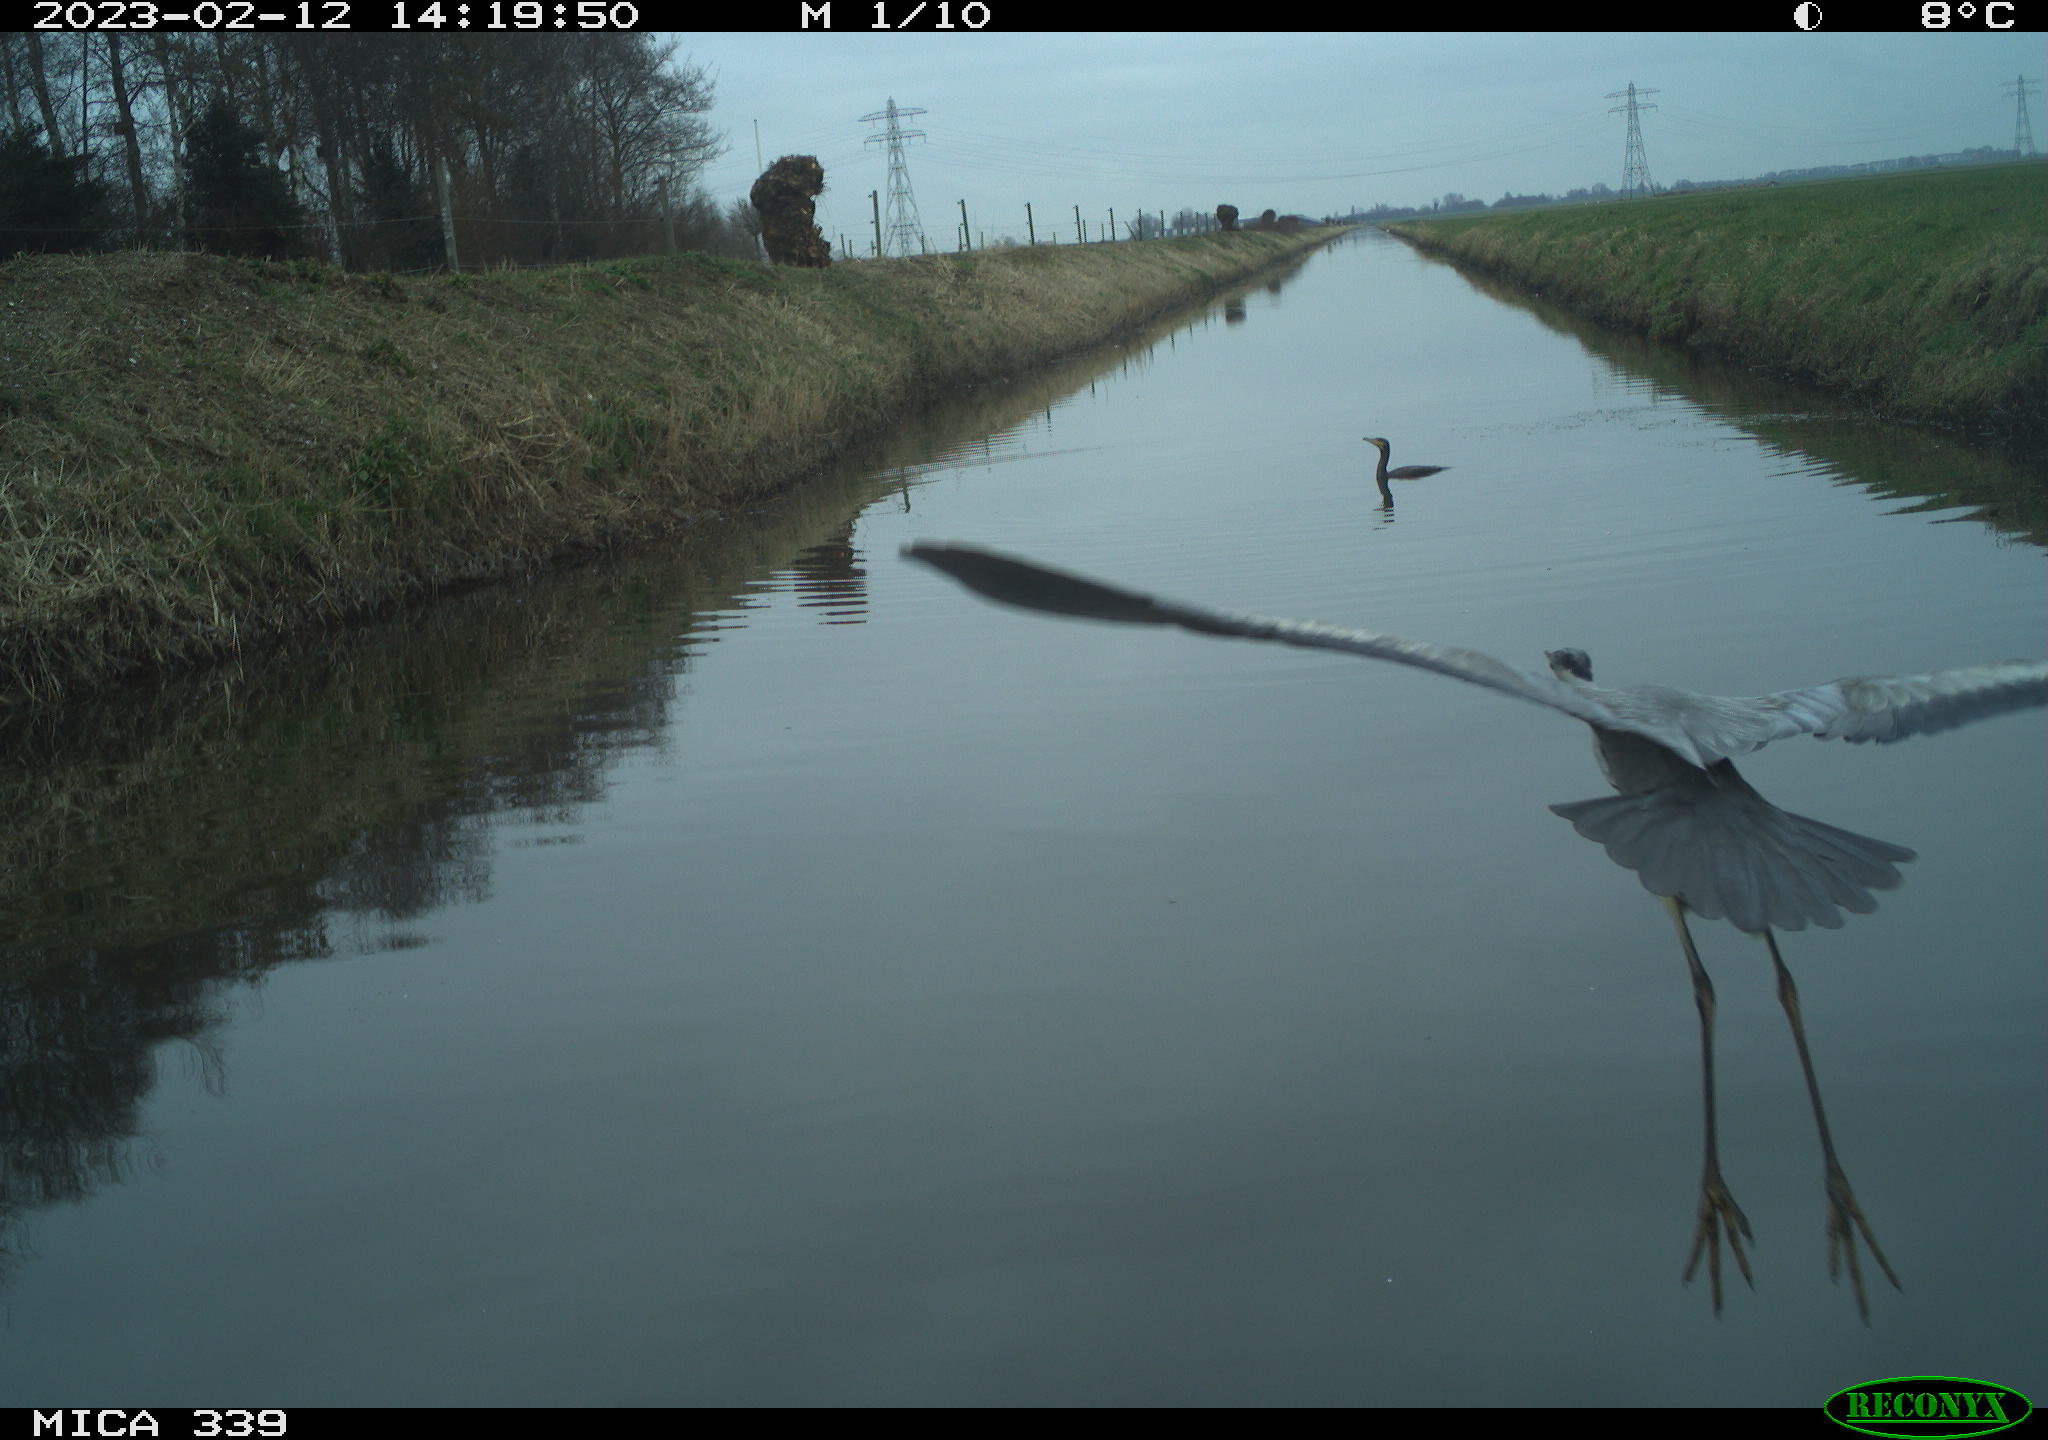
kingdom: Animalia
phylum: Chordata
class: Aves
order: Pelecaniformes
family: Ardeidae
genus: Ardea
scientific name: Ardea cinerea
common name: Grey heron
